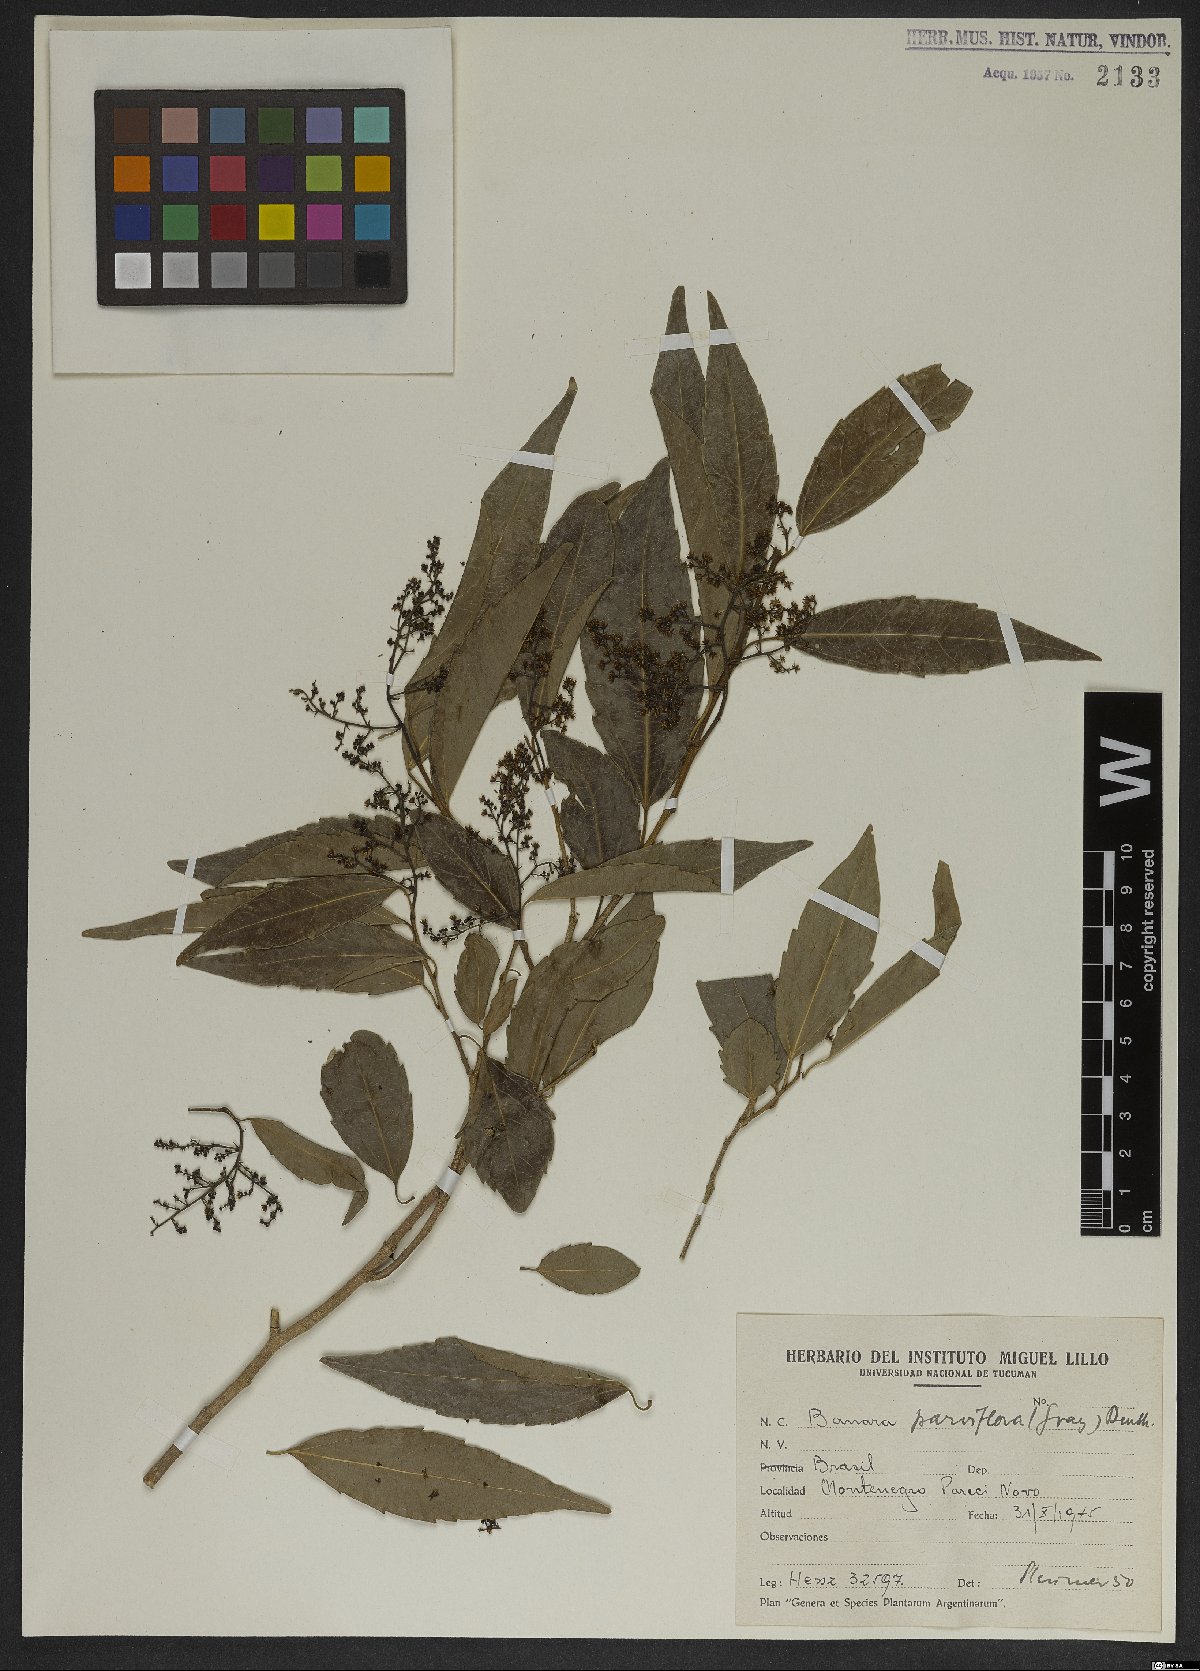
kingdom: Plantae
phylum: Tracheophyta
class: Magnoliopsida
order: Malpighiales
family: Salicaceae
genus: Banara
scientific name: Banara parviflora
